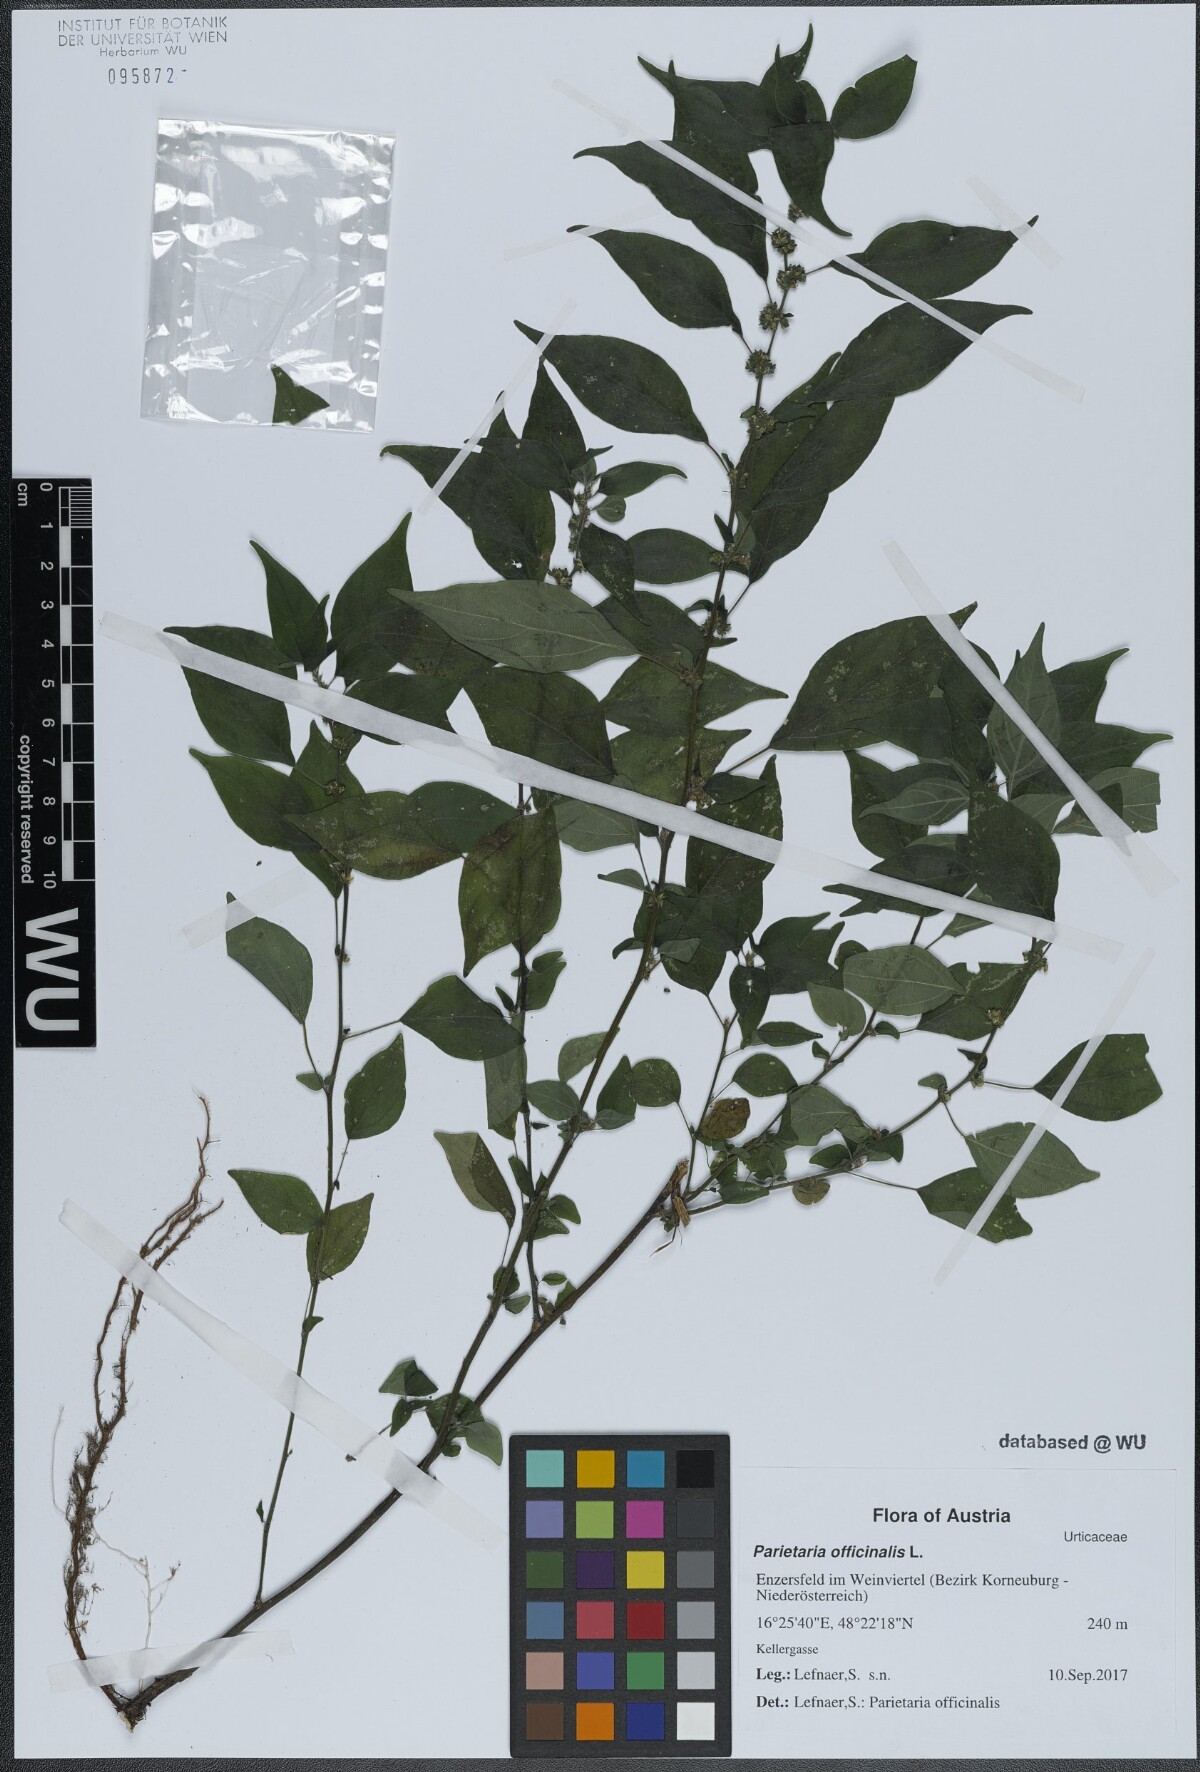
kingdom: Plantae
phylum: Tracheophyta
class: Magnoliopsida
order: Rosales
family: Urticaceae
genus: Parietaria
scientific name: Parietaria officinalis
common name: Eastern pellitory-of-the-wall
